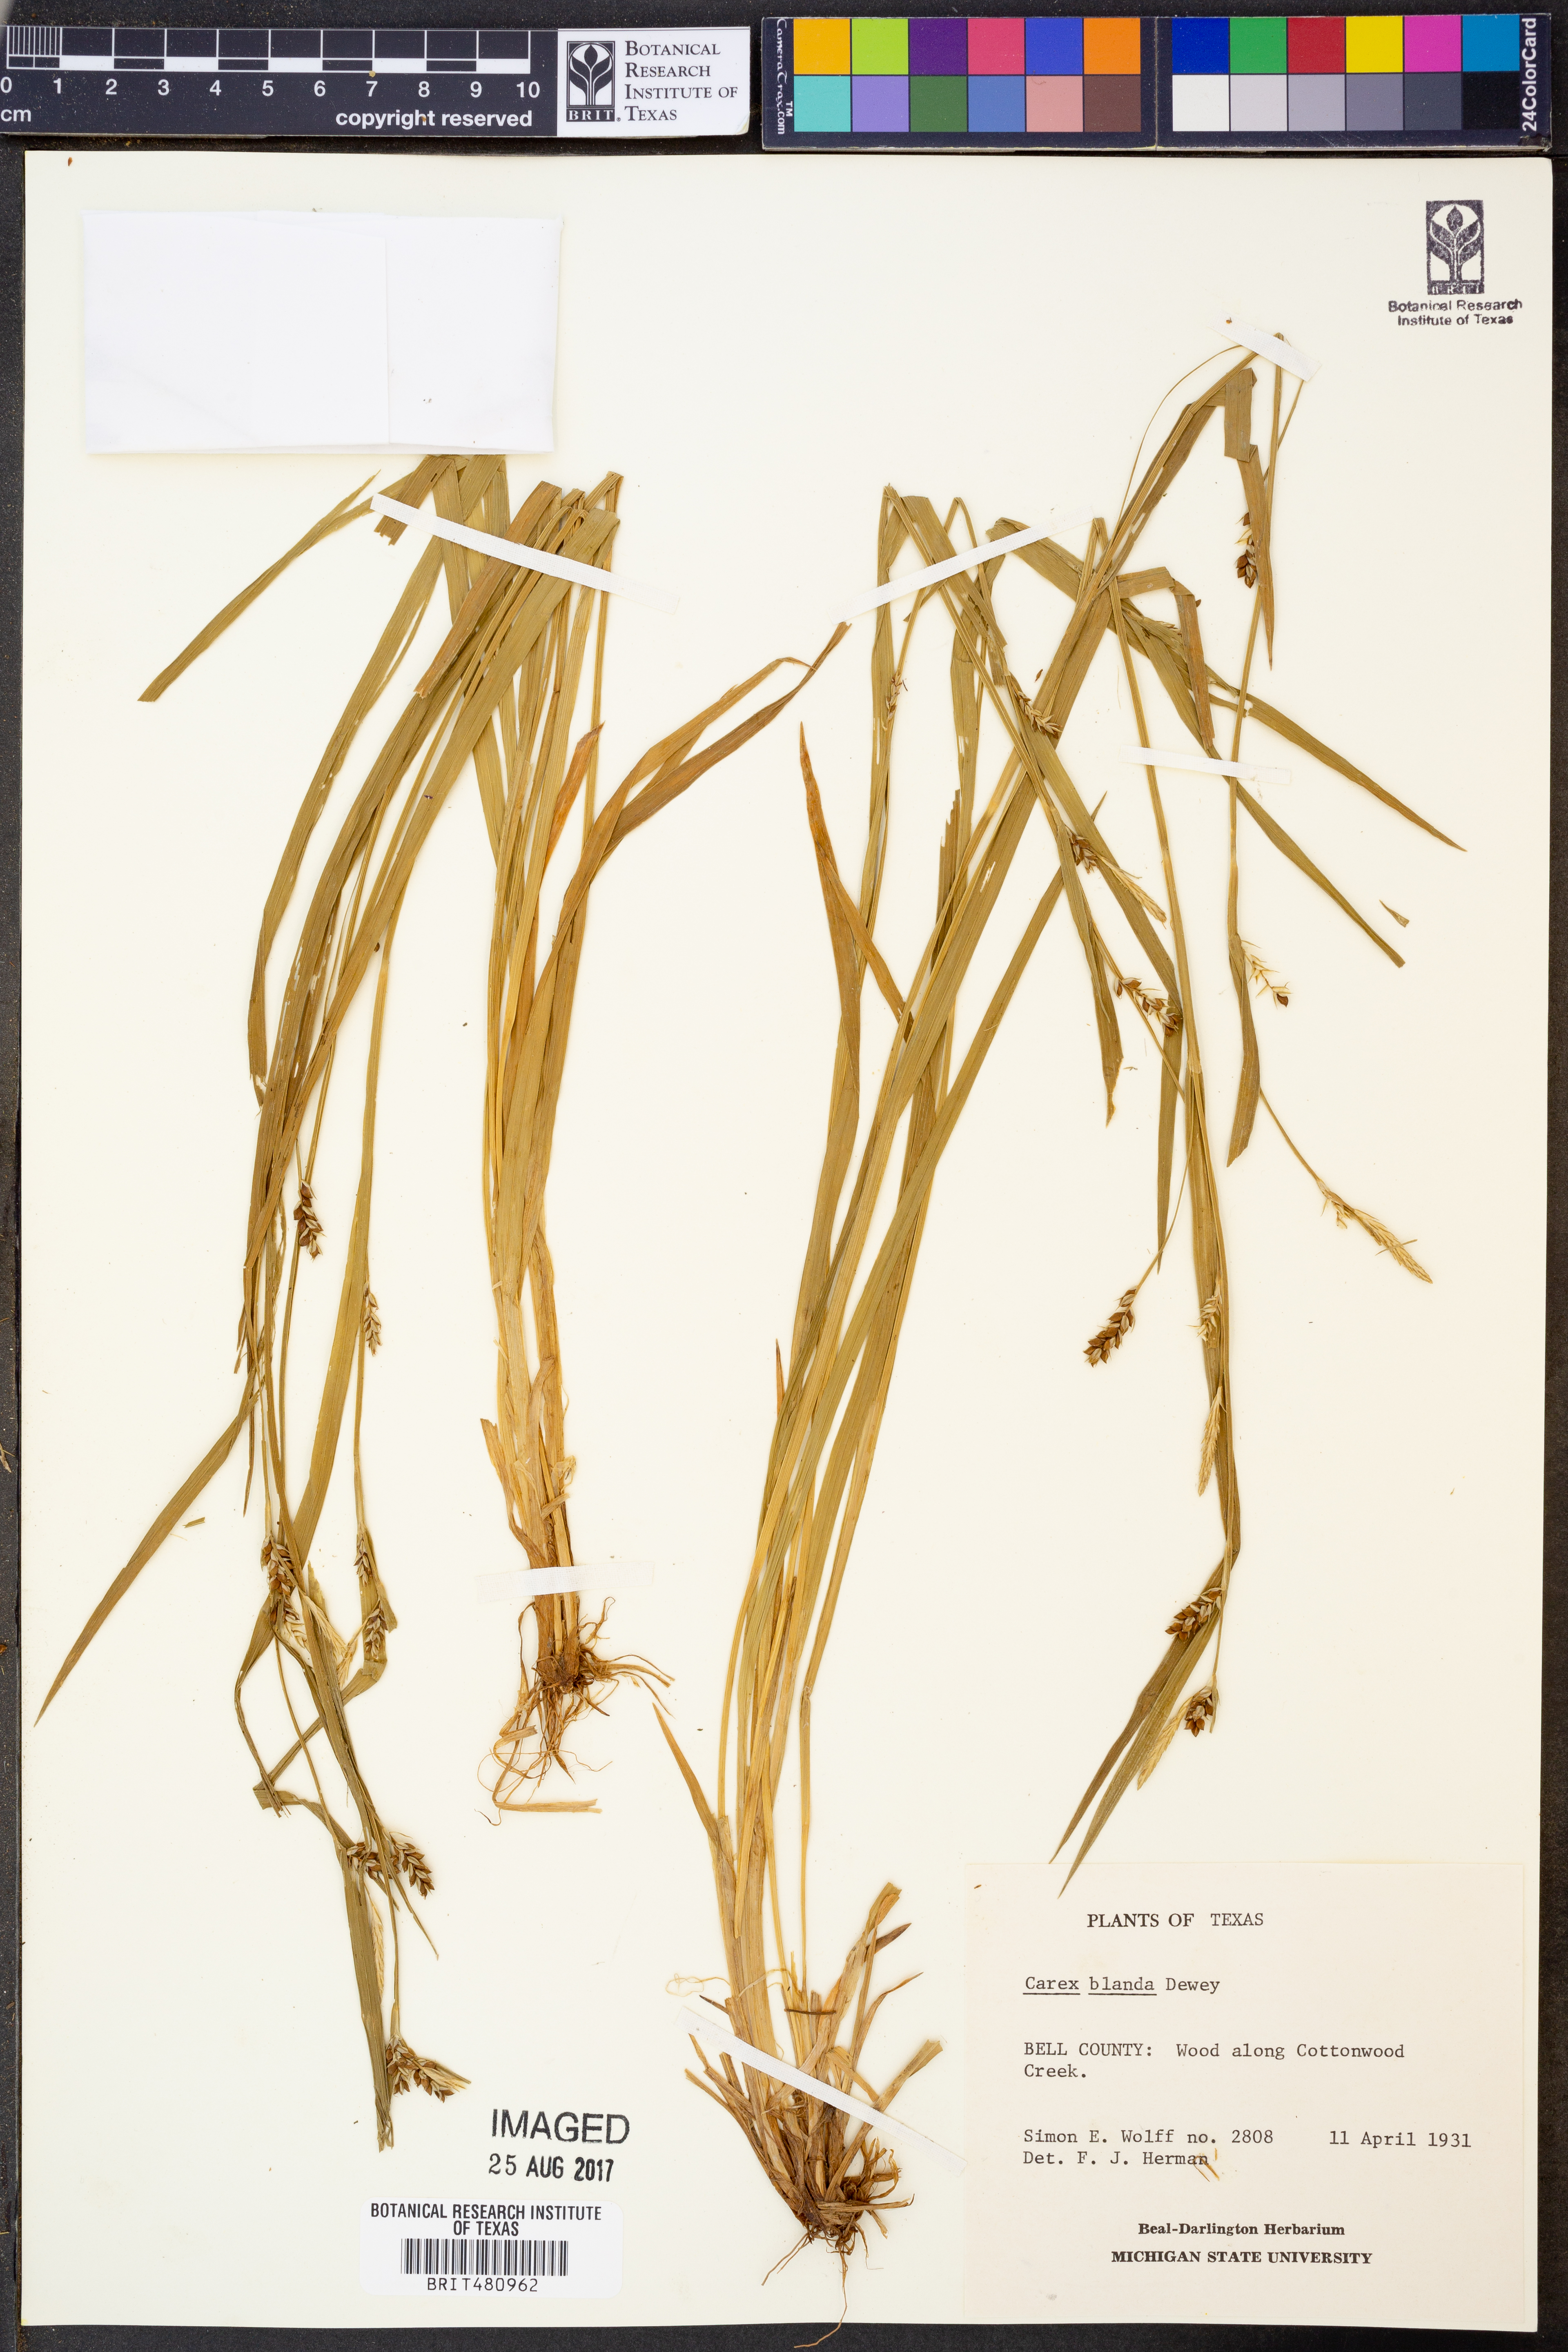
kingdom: Plantae
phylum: Tracheophyta
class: Liliopsida
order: Poales
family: Cyperaceae
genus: Carex
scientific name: Carex blanda
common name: Bland sedge
